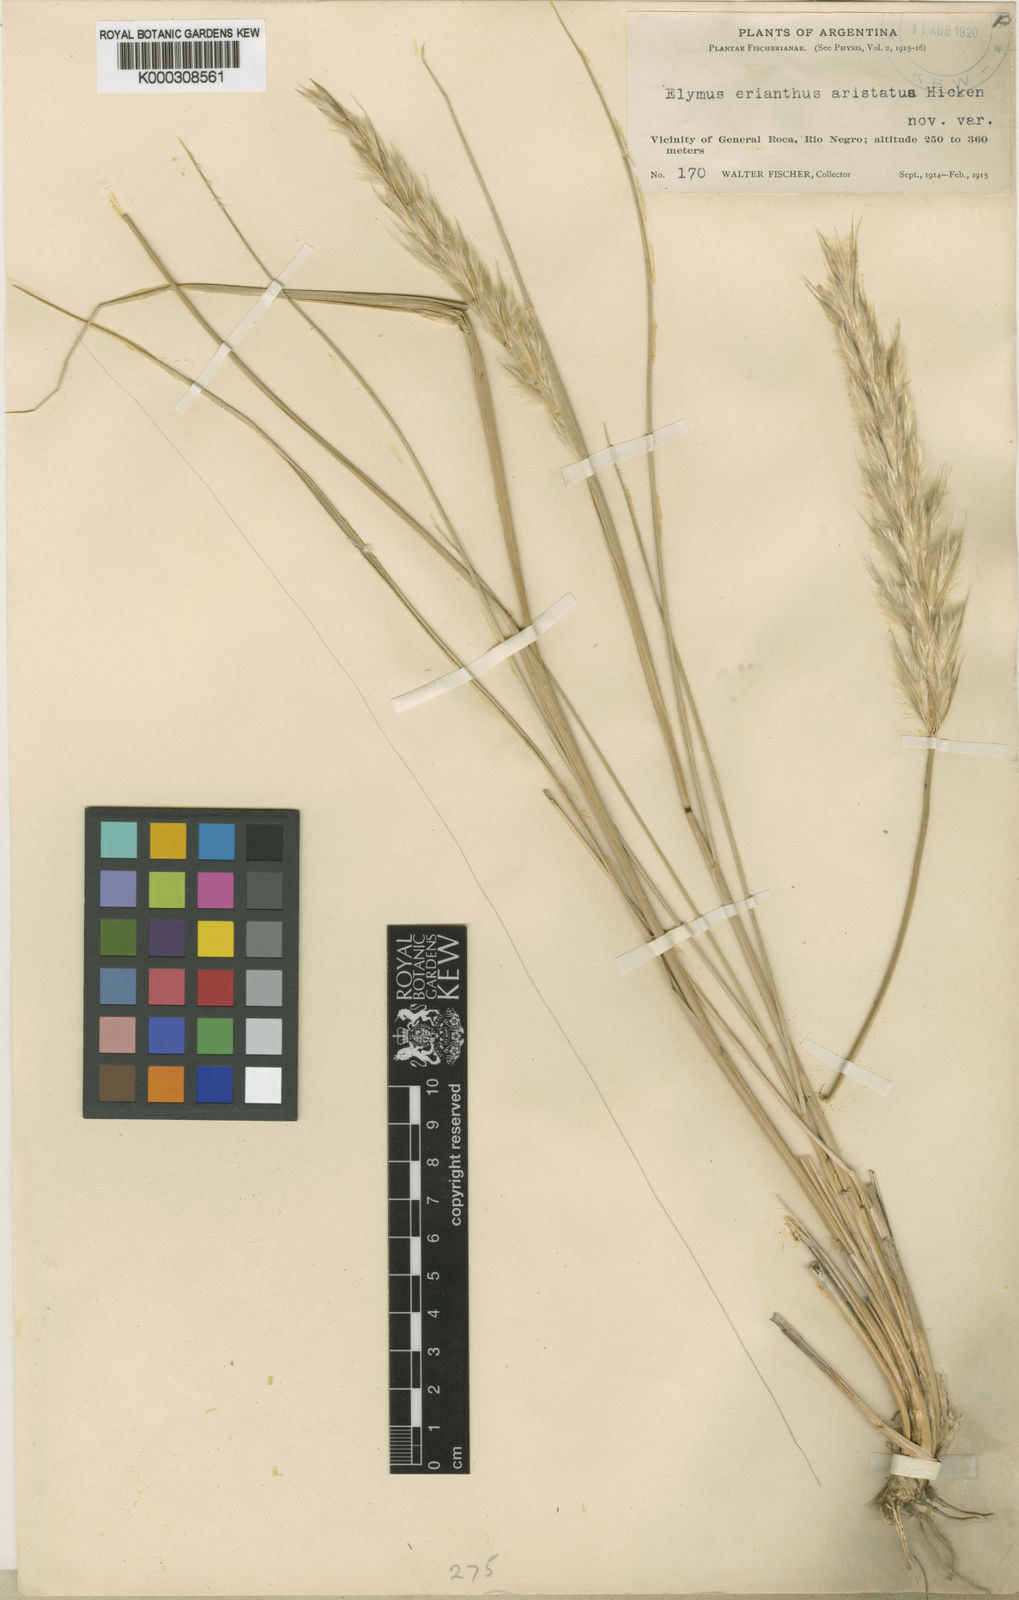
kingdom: Plantae
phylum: Tracheophyta
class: Liliopsida
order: Poales
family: Poaceae
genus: Leymus
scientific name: Leymus erianthus
